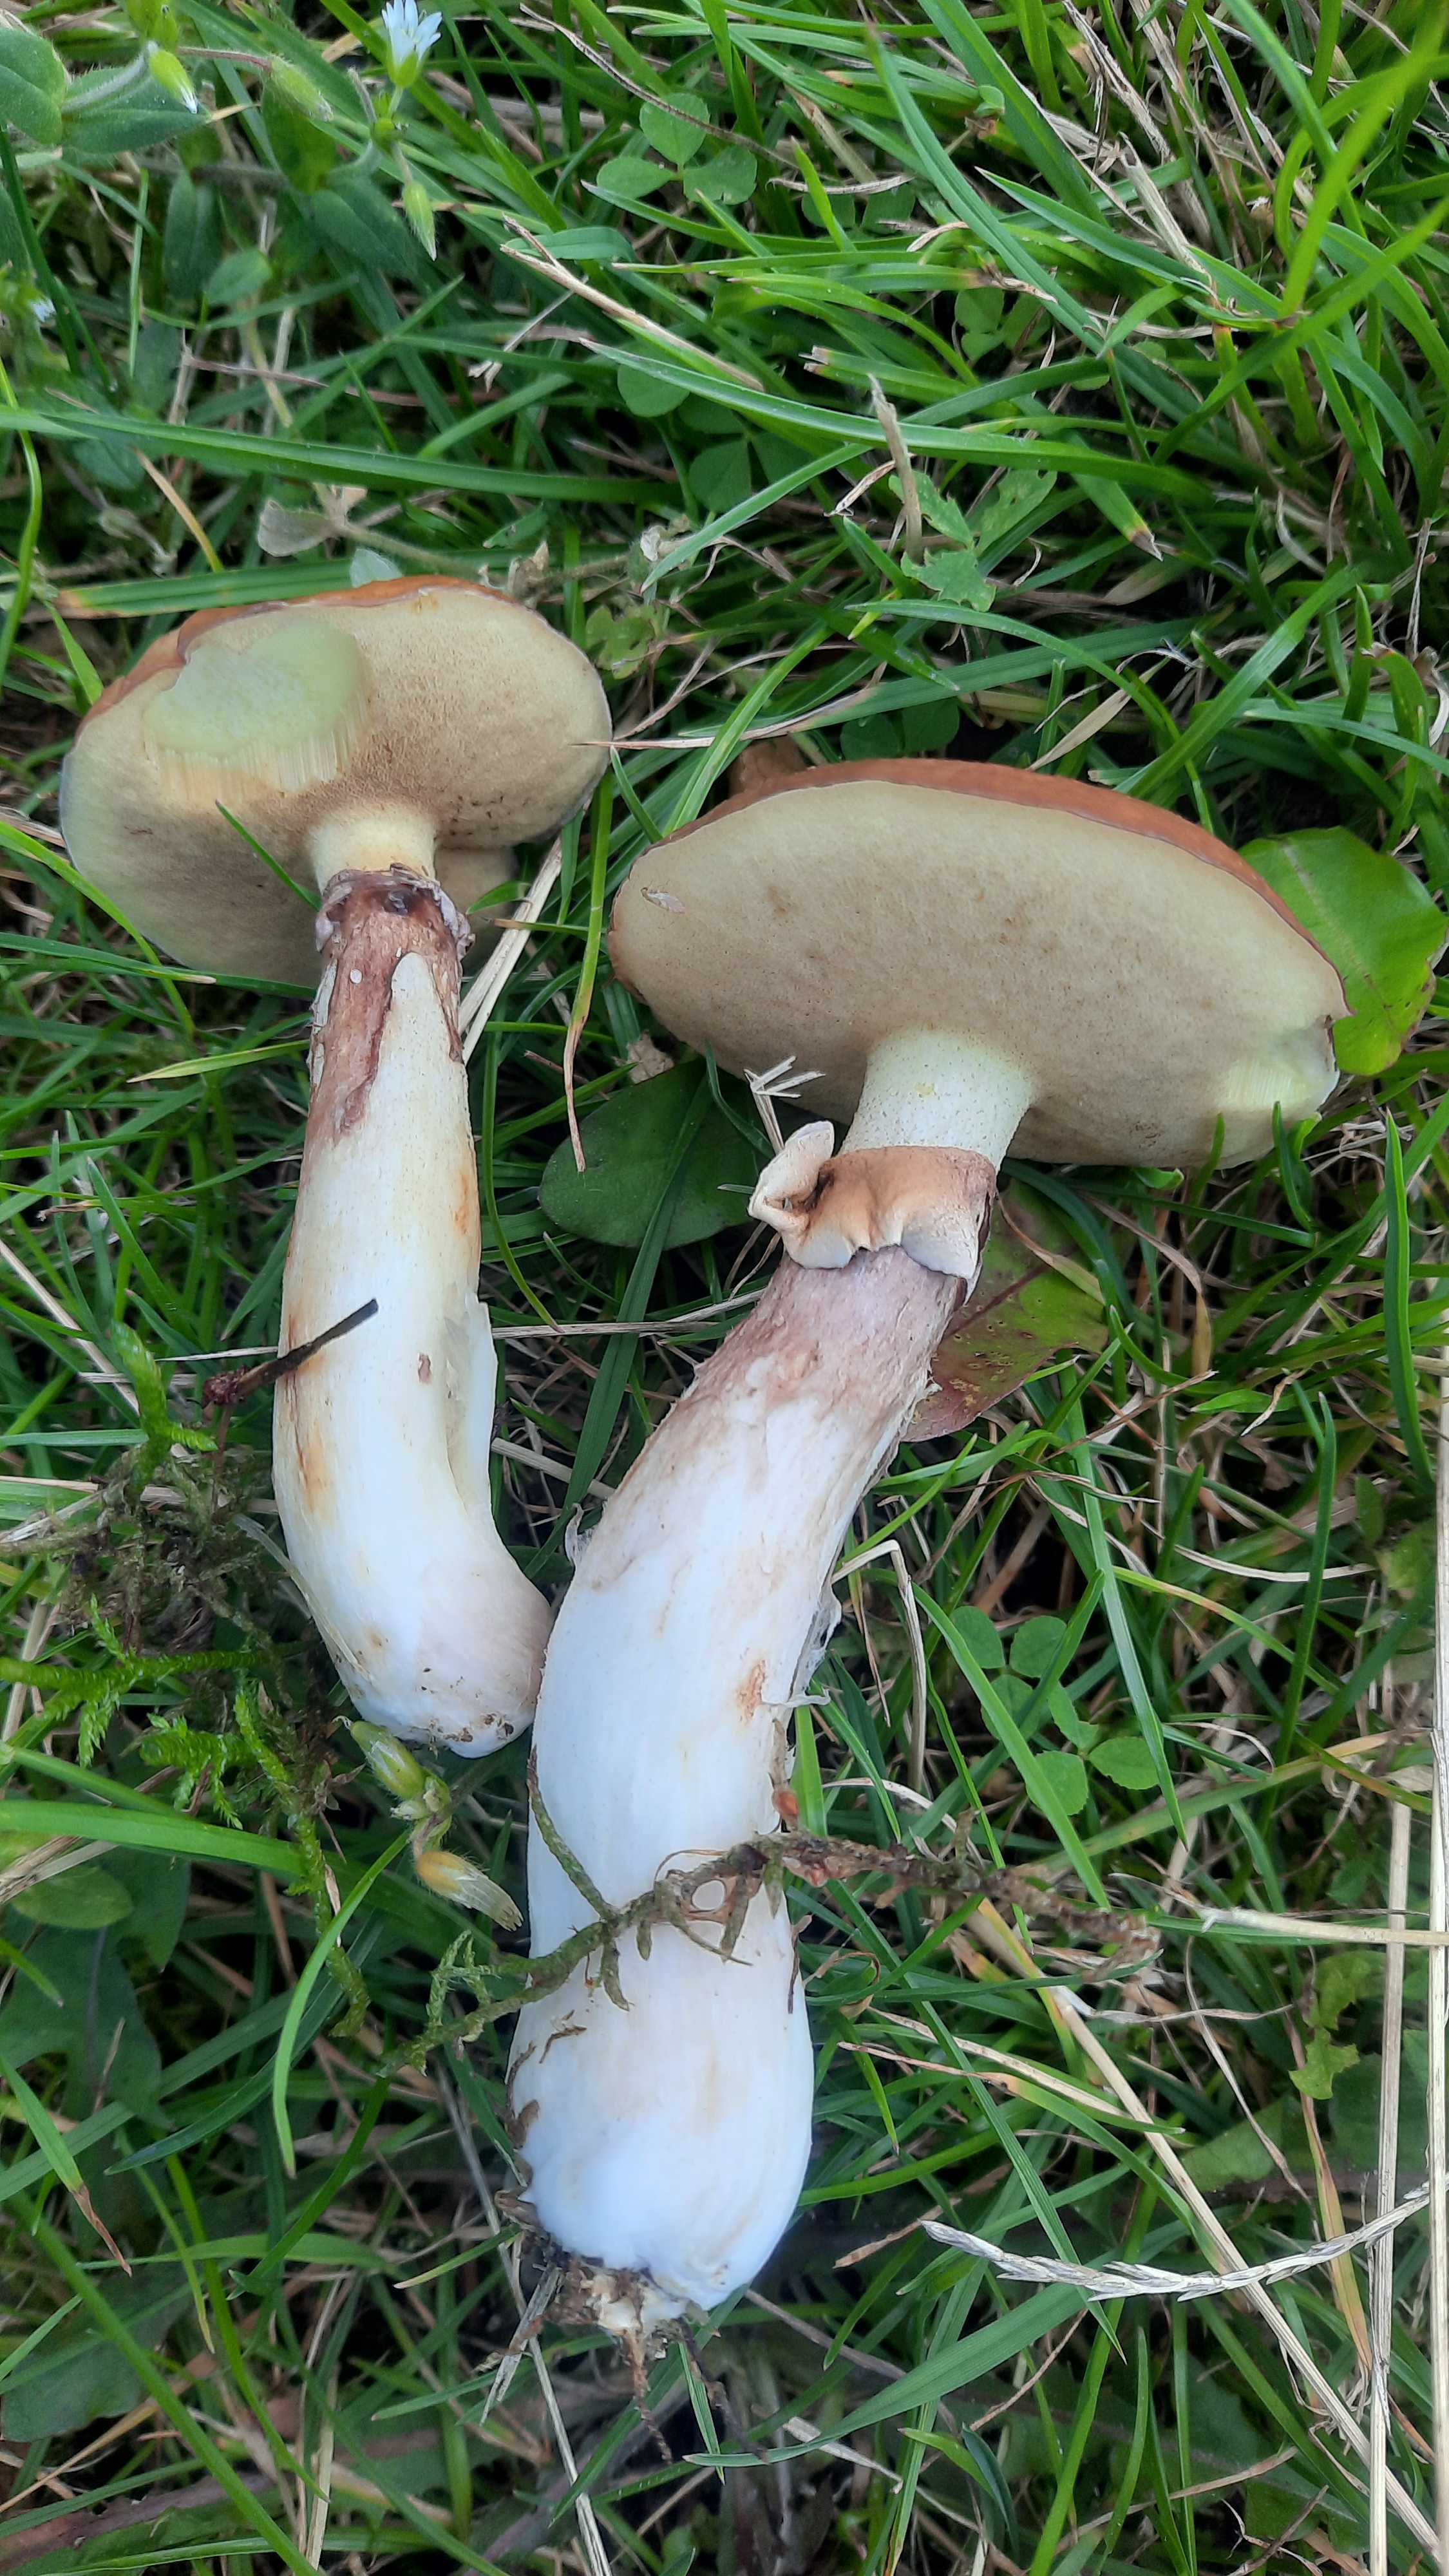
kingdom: Fungi
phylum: Basidiomycota
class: Agaricomycetes
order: Boletales
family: Suillaceae
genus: Suillus
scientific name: Suillus luteus
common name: brungul slimrørhat
